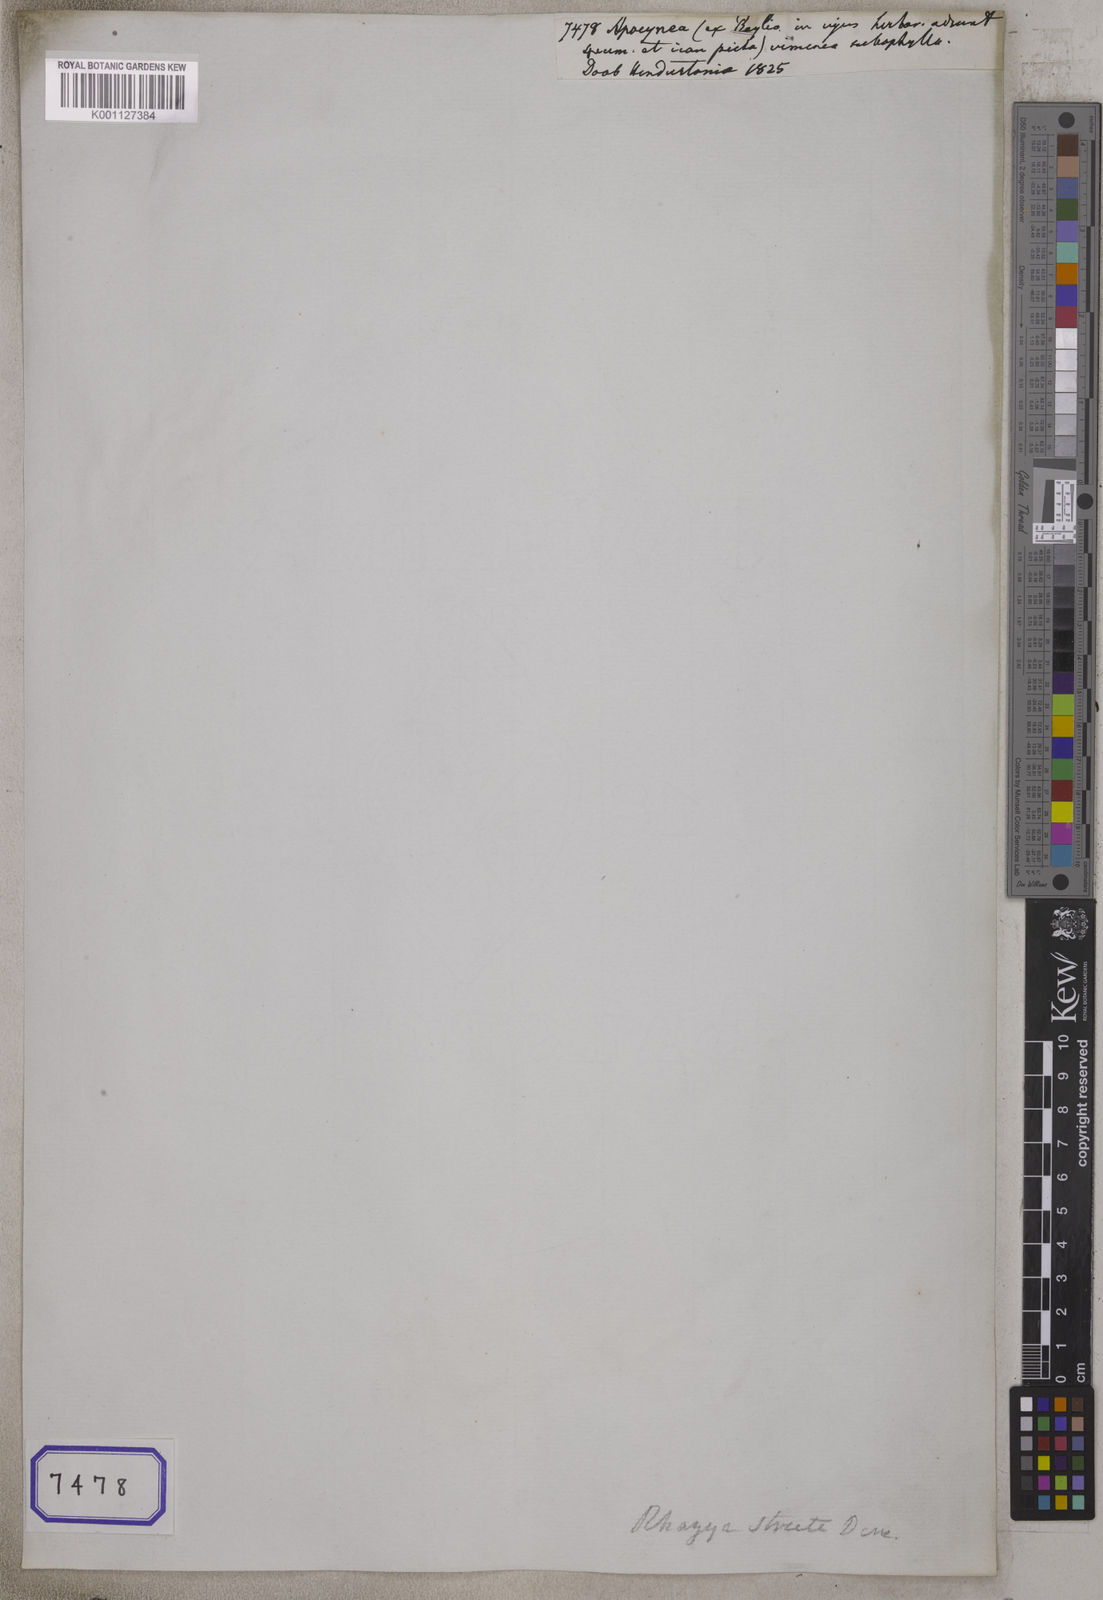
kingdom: Plantae
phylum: Tracheophyta
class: Magnoliopsida
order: Gentianales
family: Apocynaceae
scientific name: Apocynaceae
